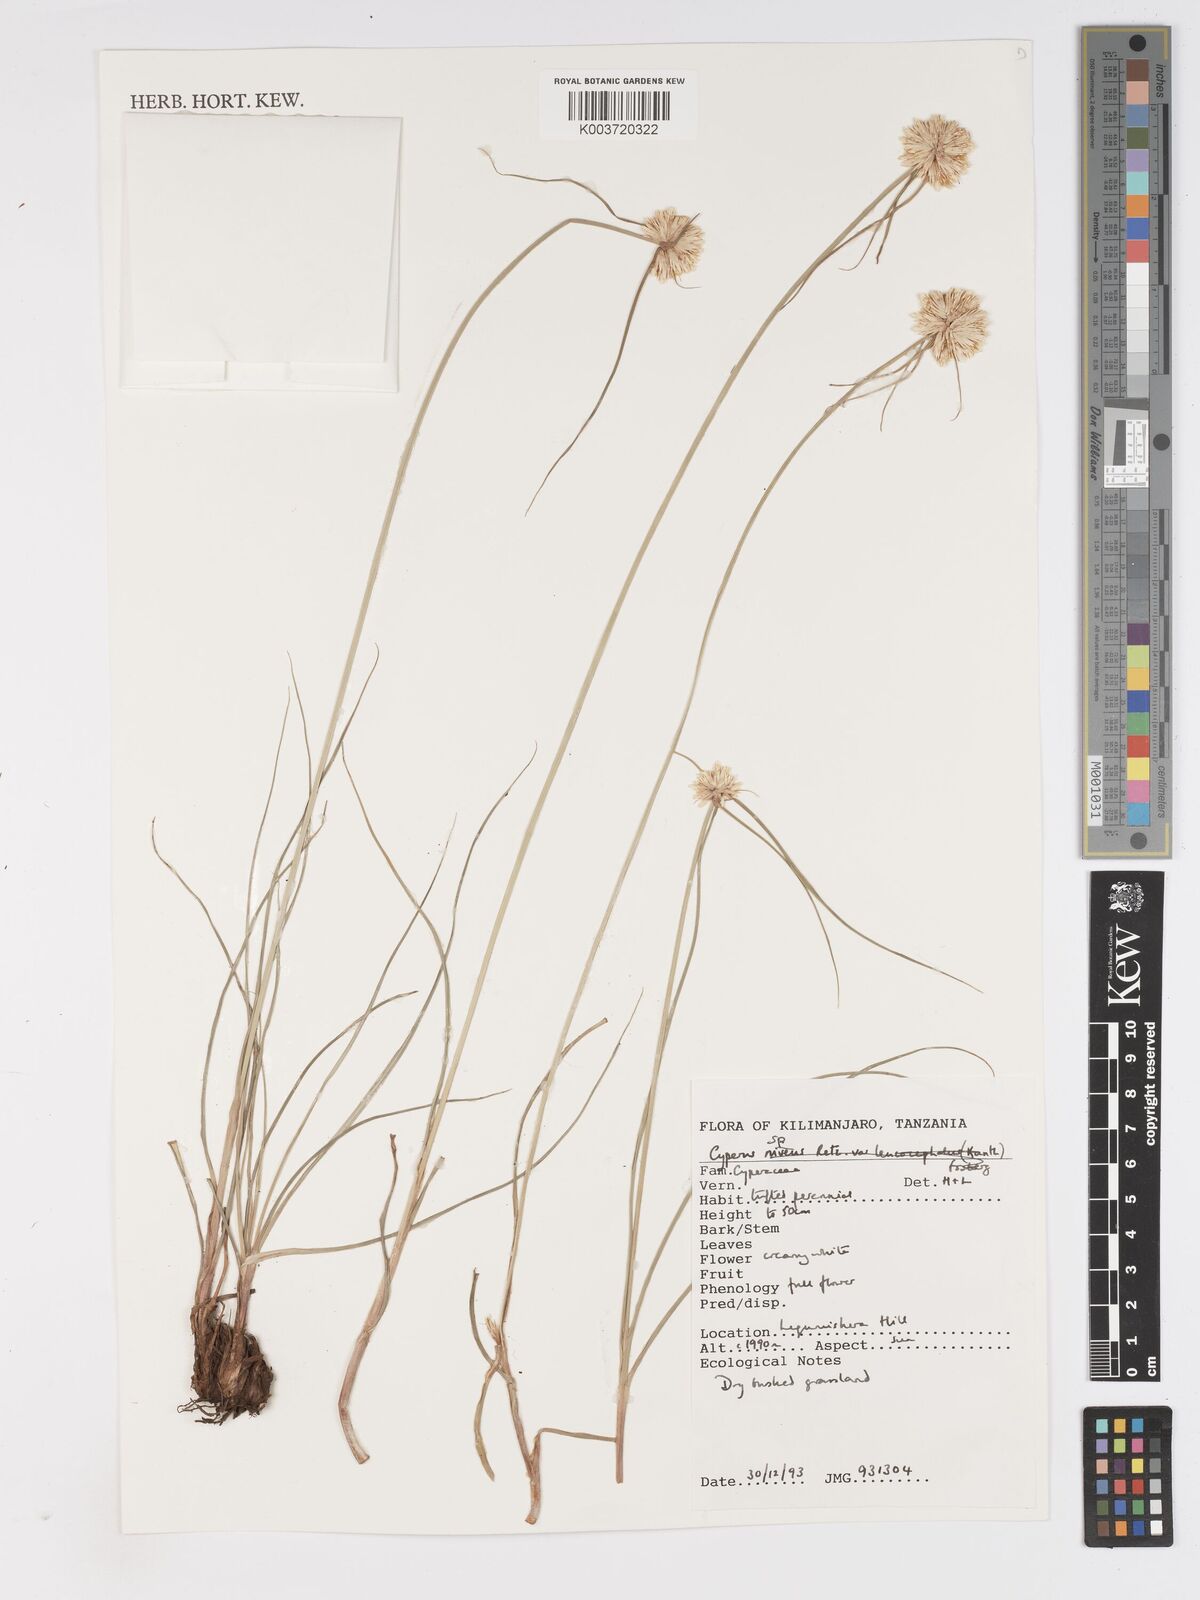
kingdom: Plantae
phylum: Tracheophyta
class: Liliopsida
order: Poales
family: Cyperaceae
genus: Cyperus
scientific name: Cyperus
